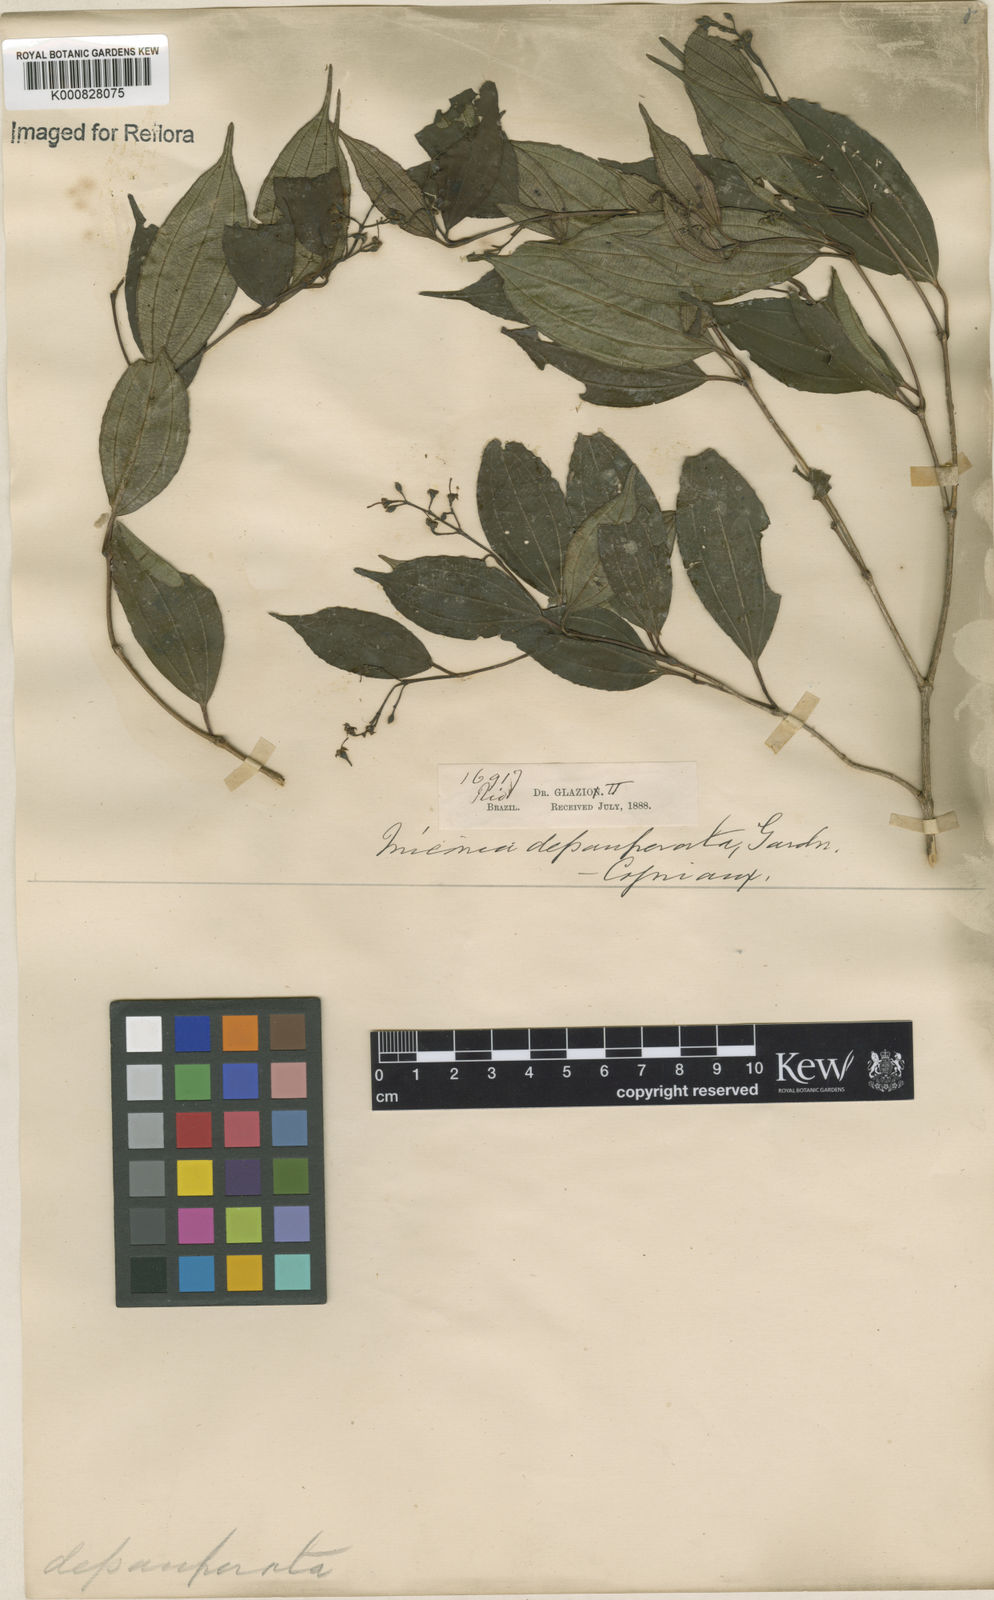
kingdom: Plantae
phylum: Tracheophyta
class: Magnoliopsida
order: Myrtales
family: Melastomataceae
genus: Miconia
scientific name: Miconia depauperata
